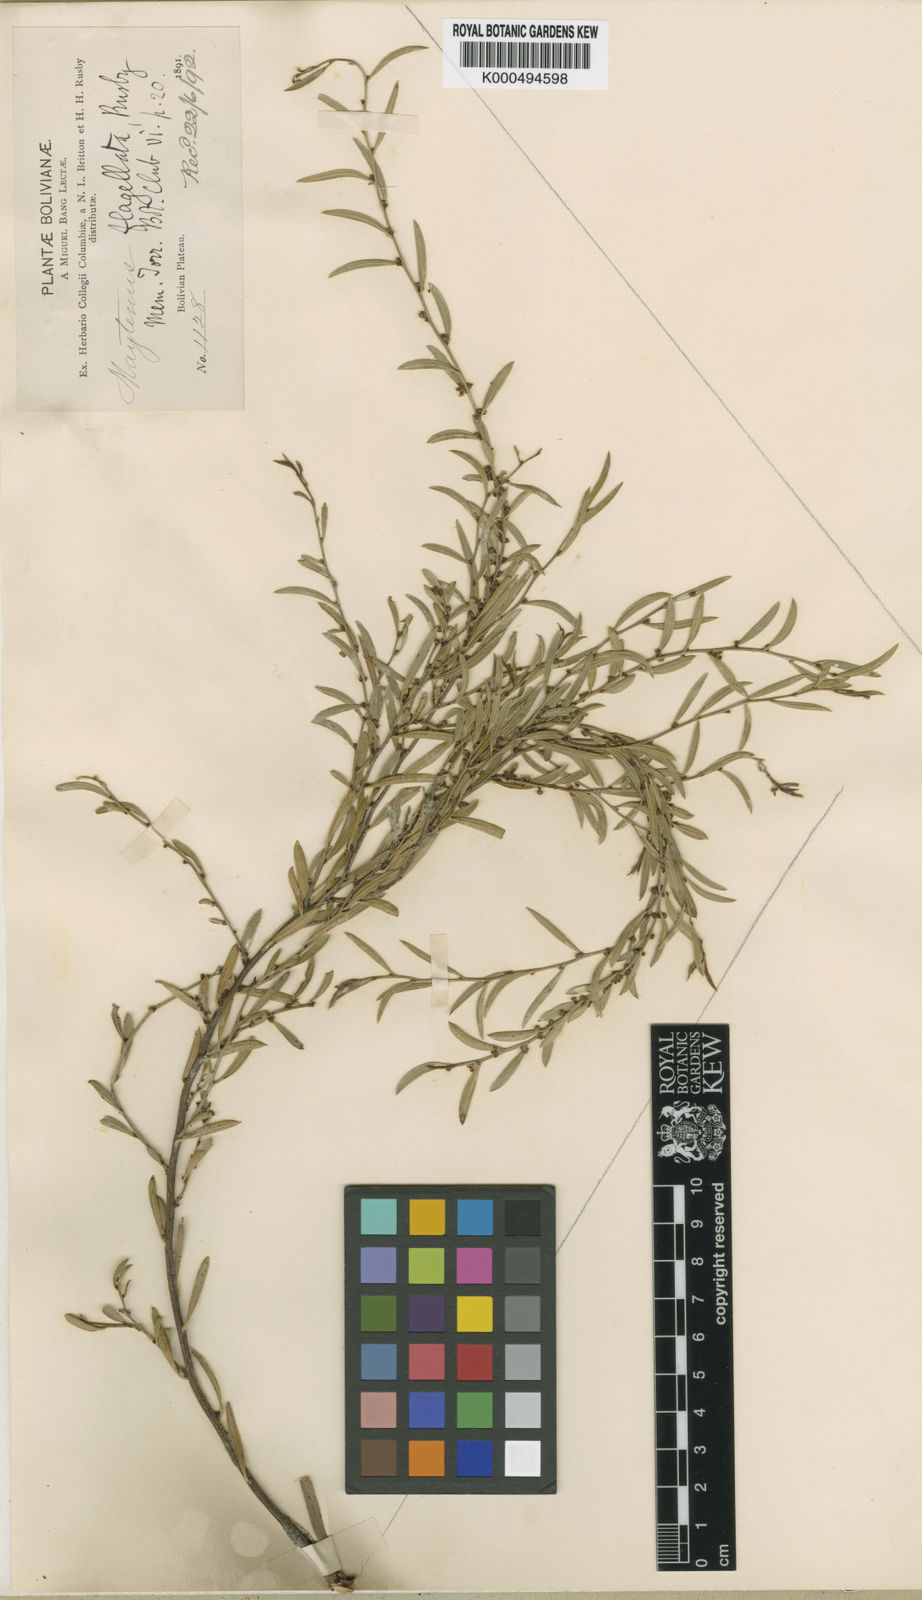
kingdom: Plantae
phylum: Tracheophyta
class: Magnoliopsida
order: Celastrales
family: Celastraceae
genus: Monteverdia
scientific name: Monteverdia flagellata
